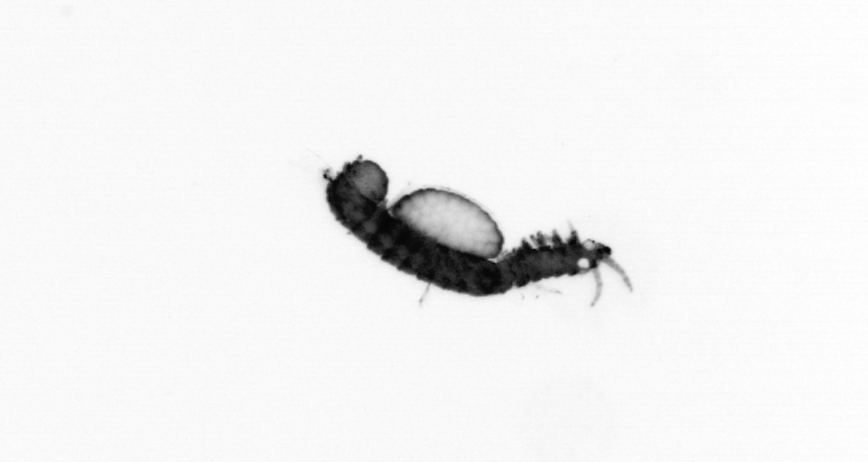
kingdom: Animalia
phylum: Annelida
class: Polychaeta
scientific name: Polychaeta
